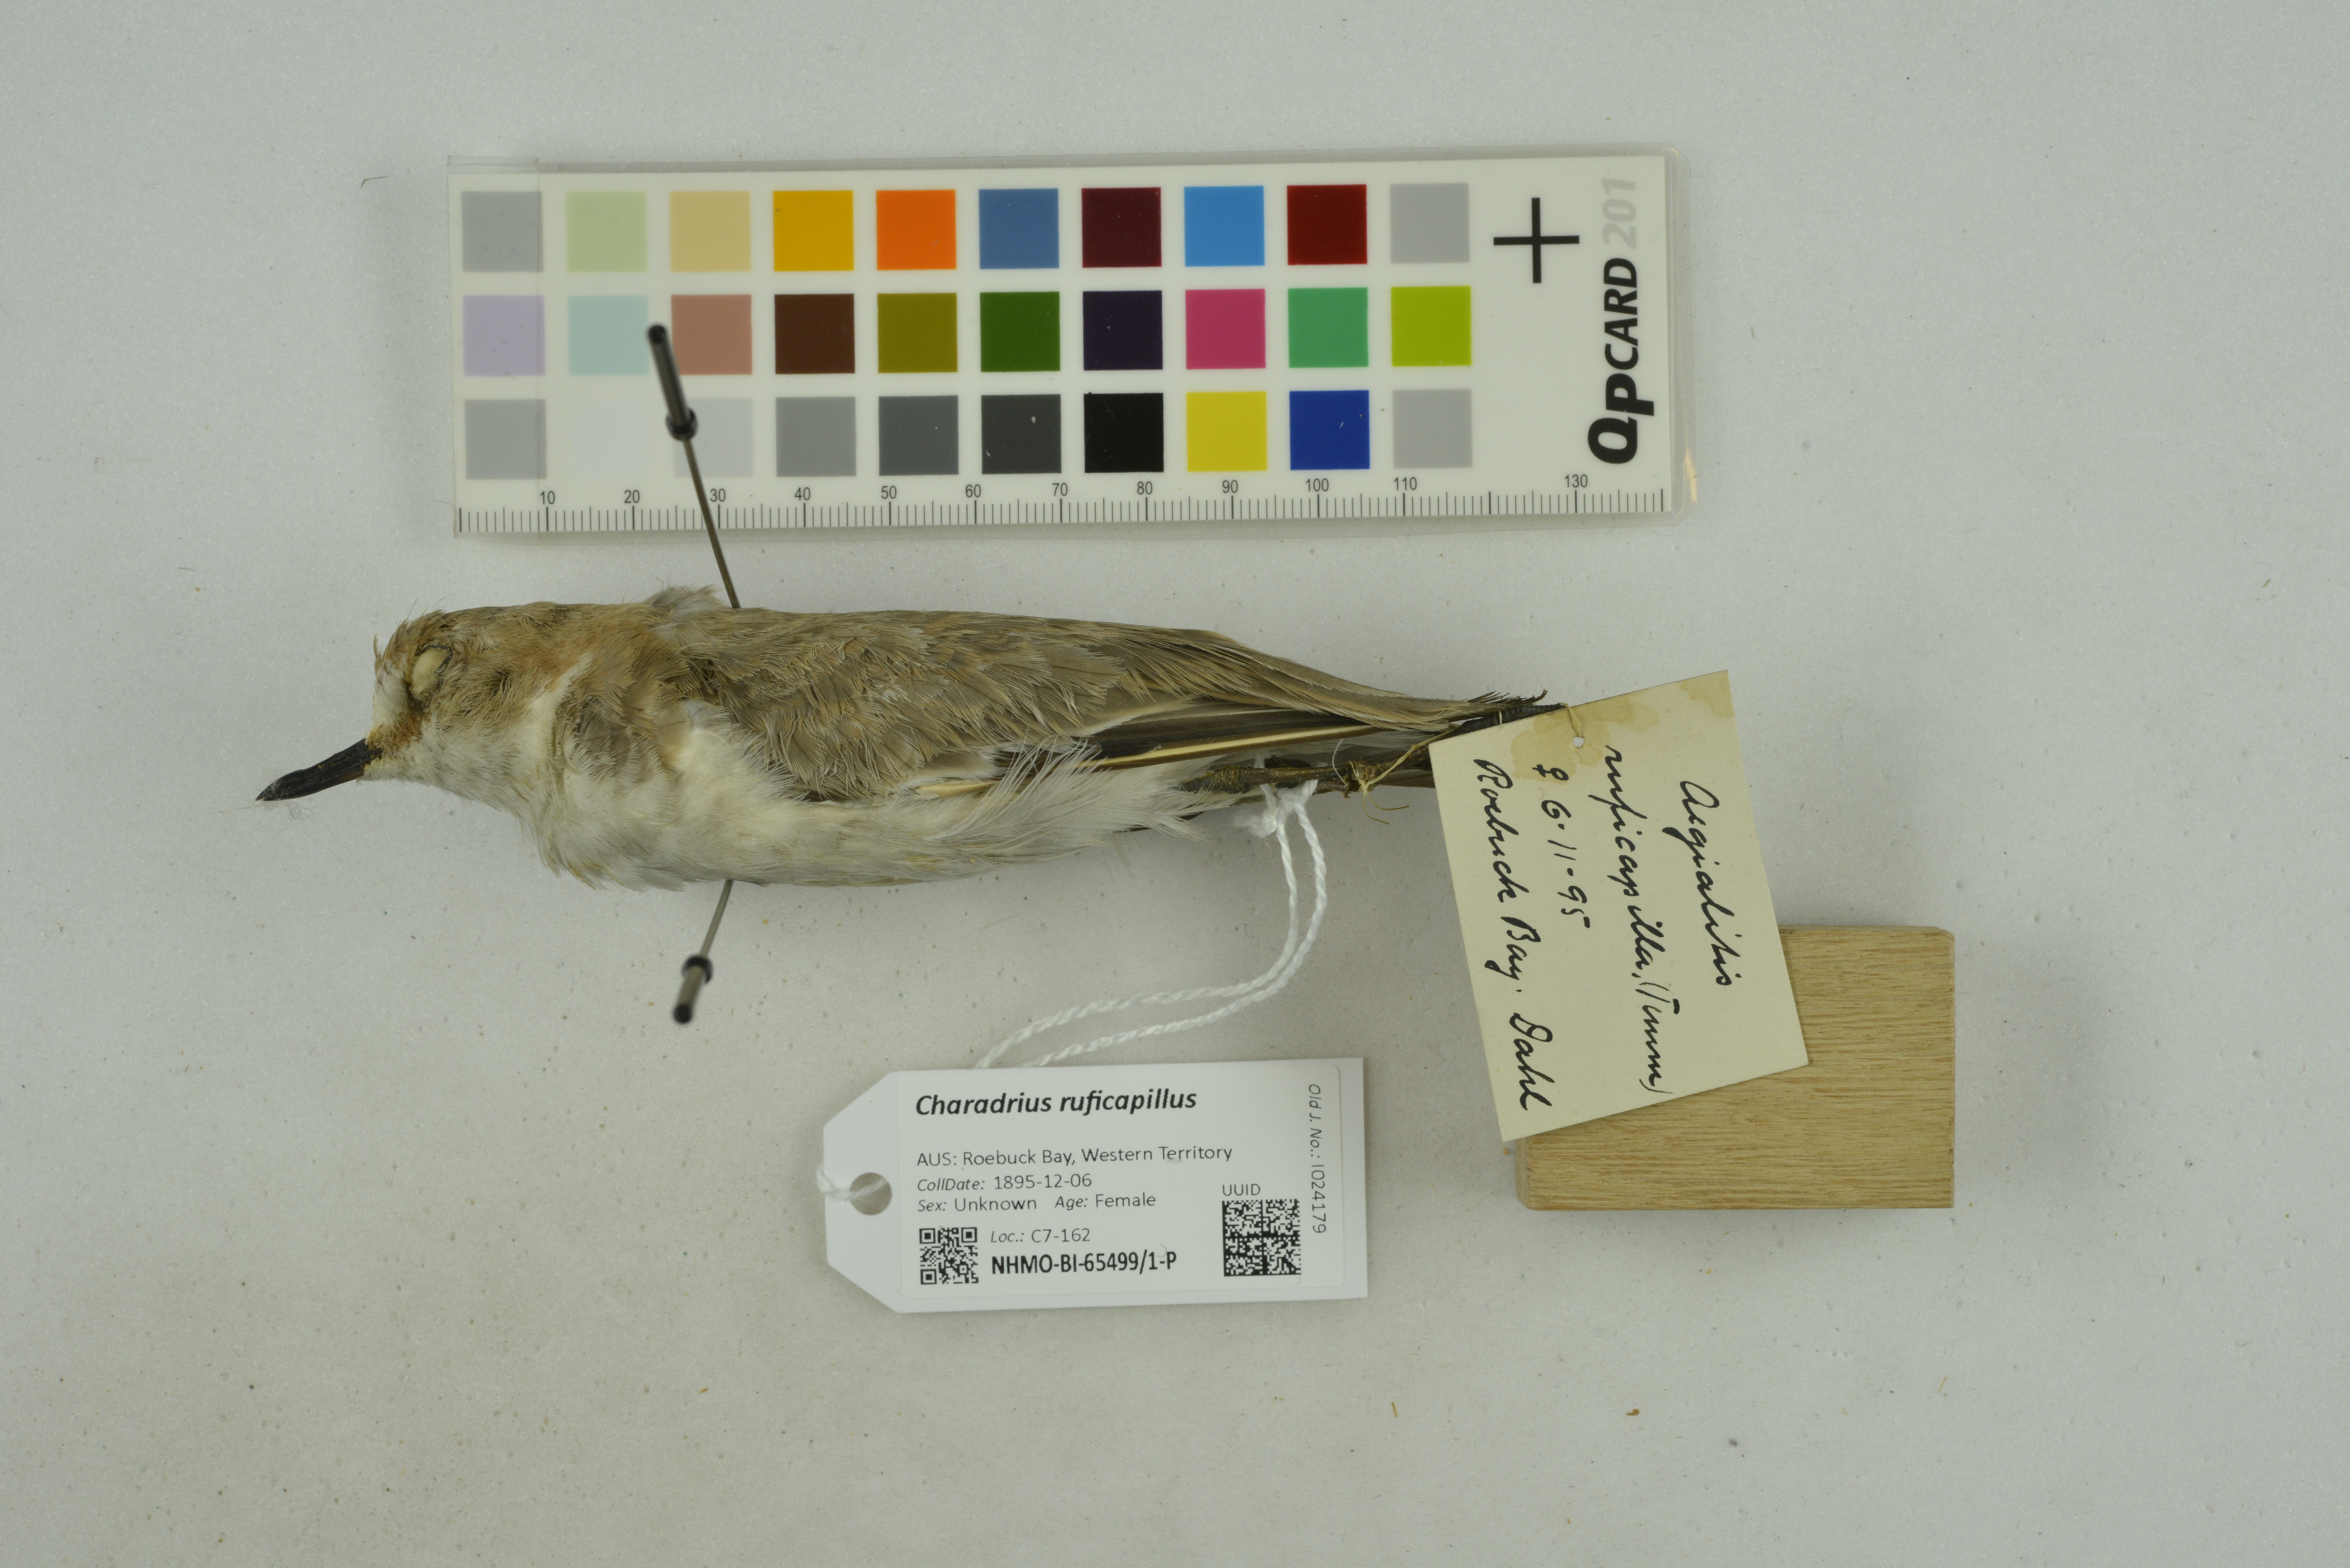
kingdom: Animalia
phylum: Chordata
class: Aves
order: Charadriiformes
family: Charadriidae
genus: Charadrius
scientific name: Charadrius ruficapillus
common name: Red-capped plover
